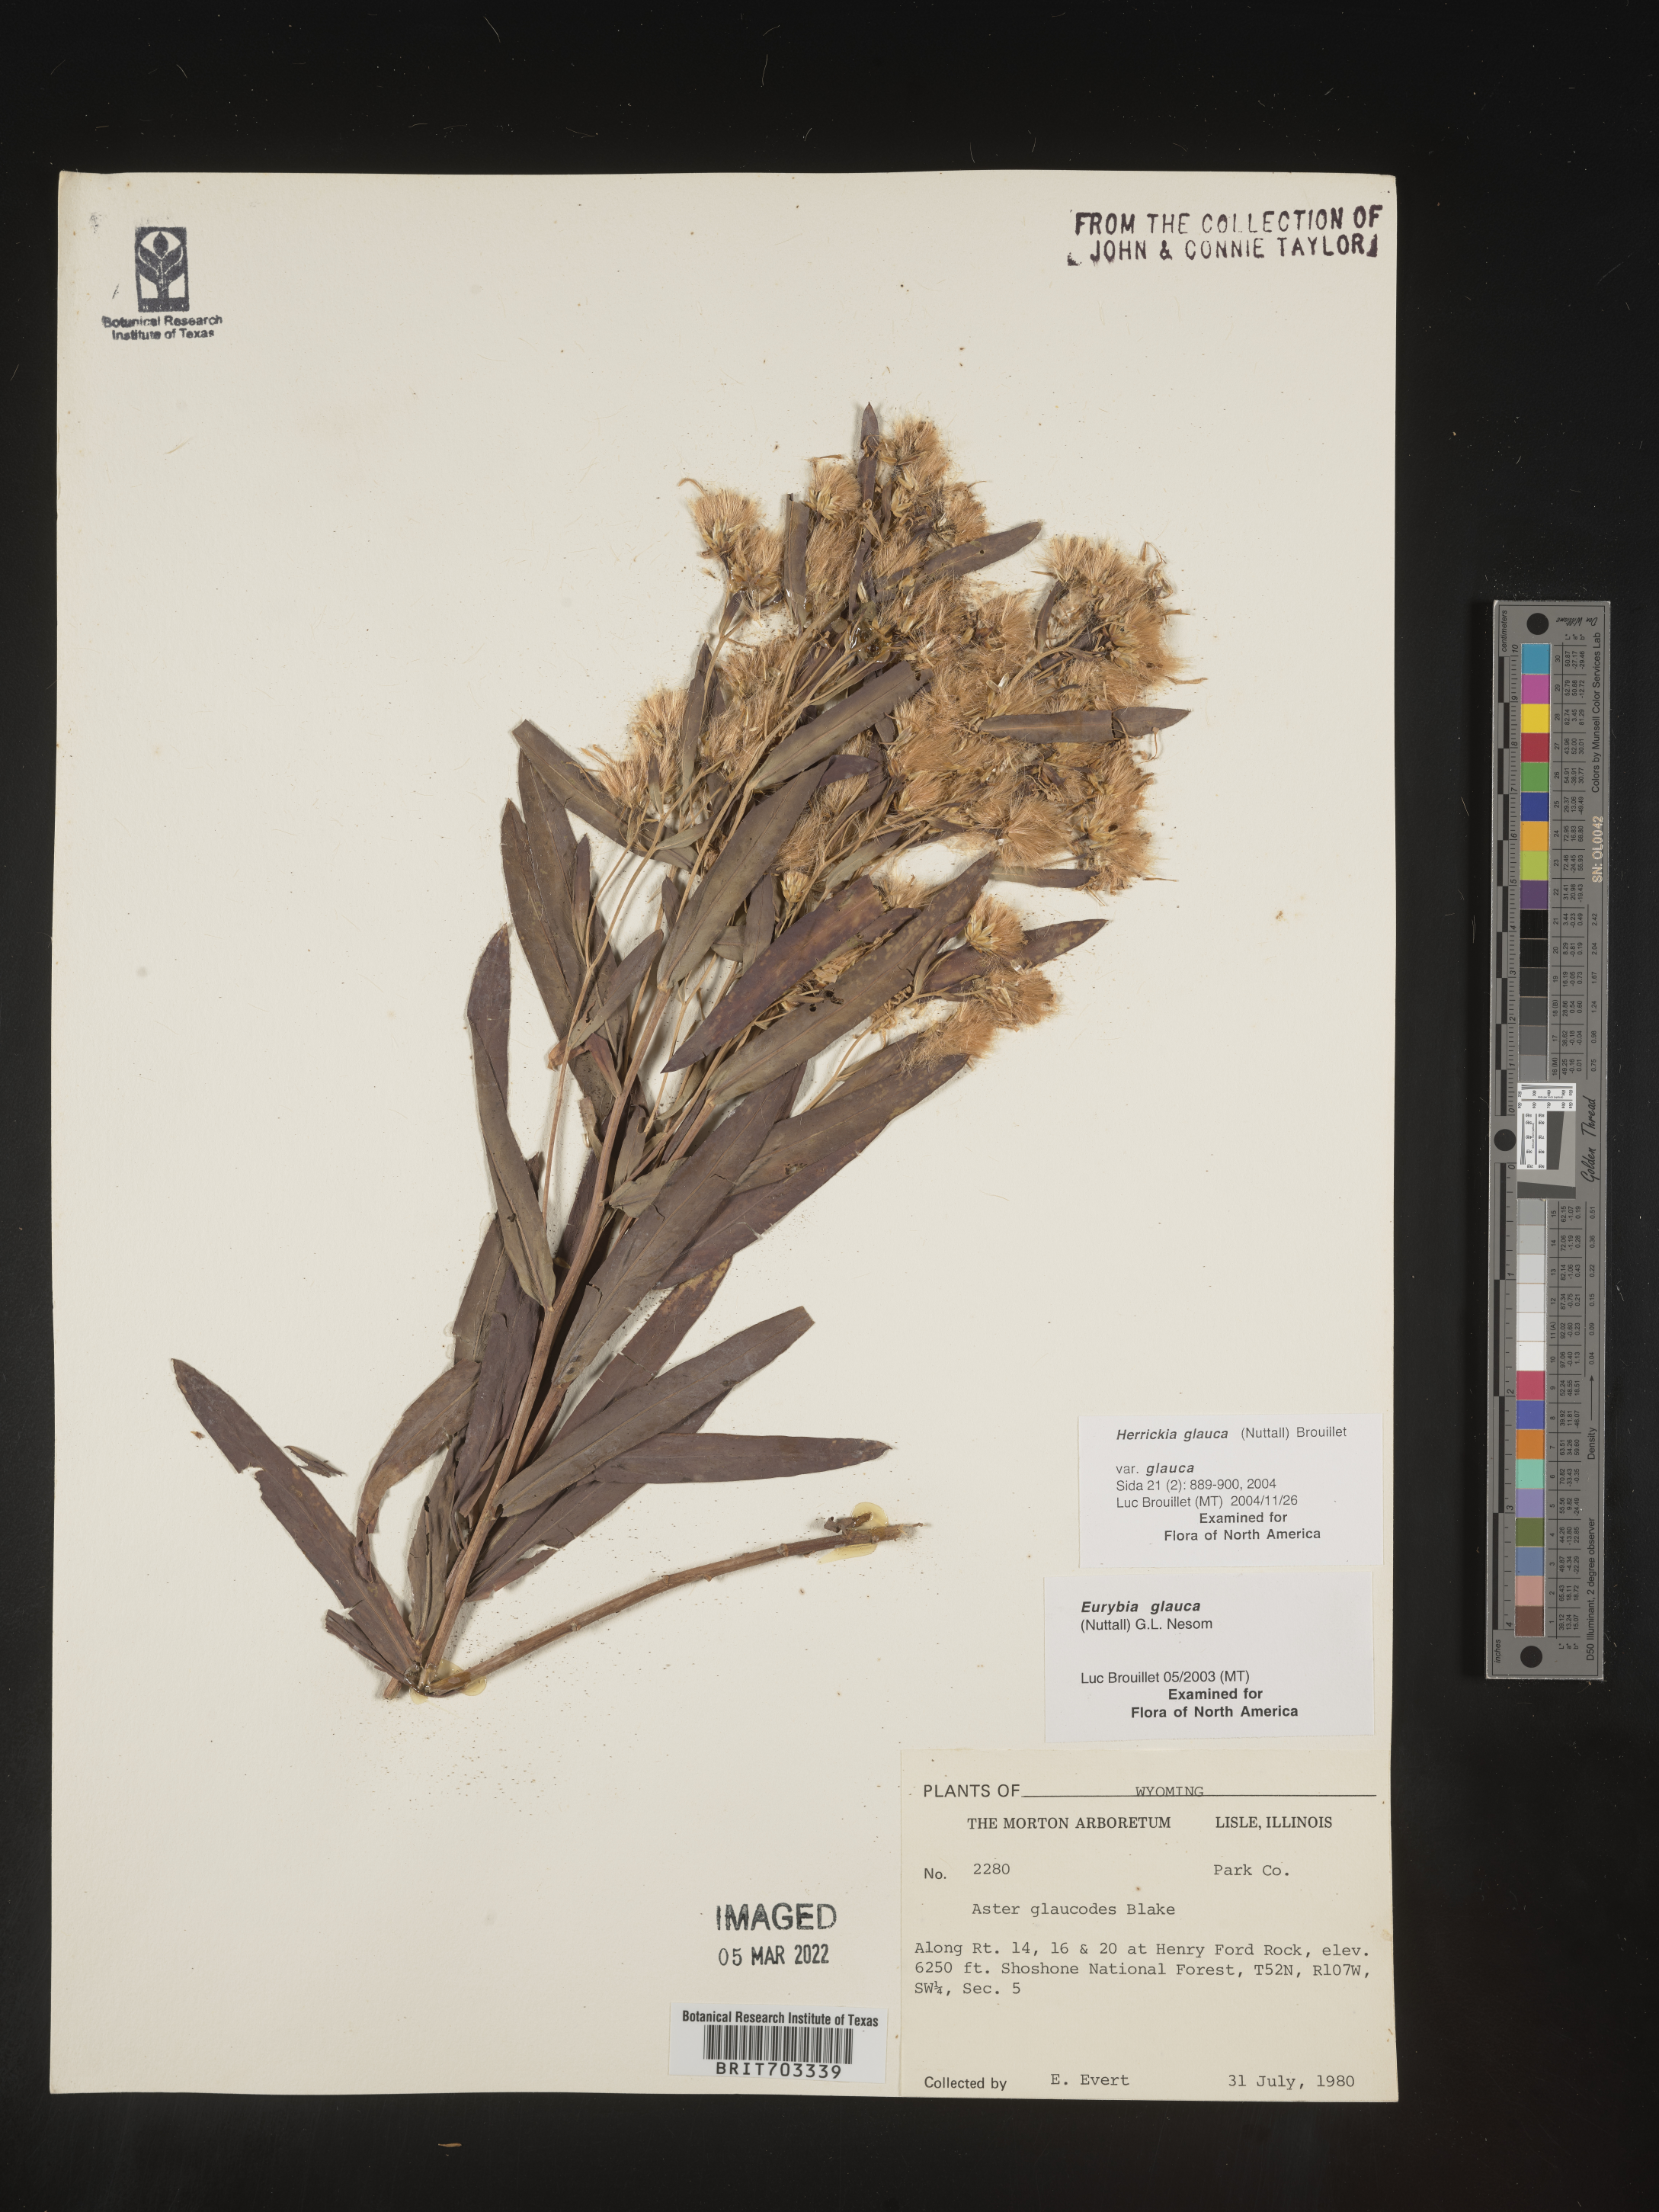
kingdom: Plantae
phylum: Tracheophyta
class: Magnoliopsida
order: Asterales
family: Asteraceae
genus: Eurybia
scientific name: Eurybia glauca
